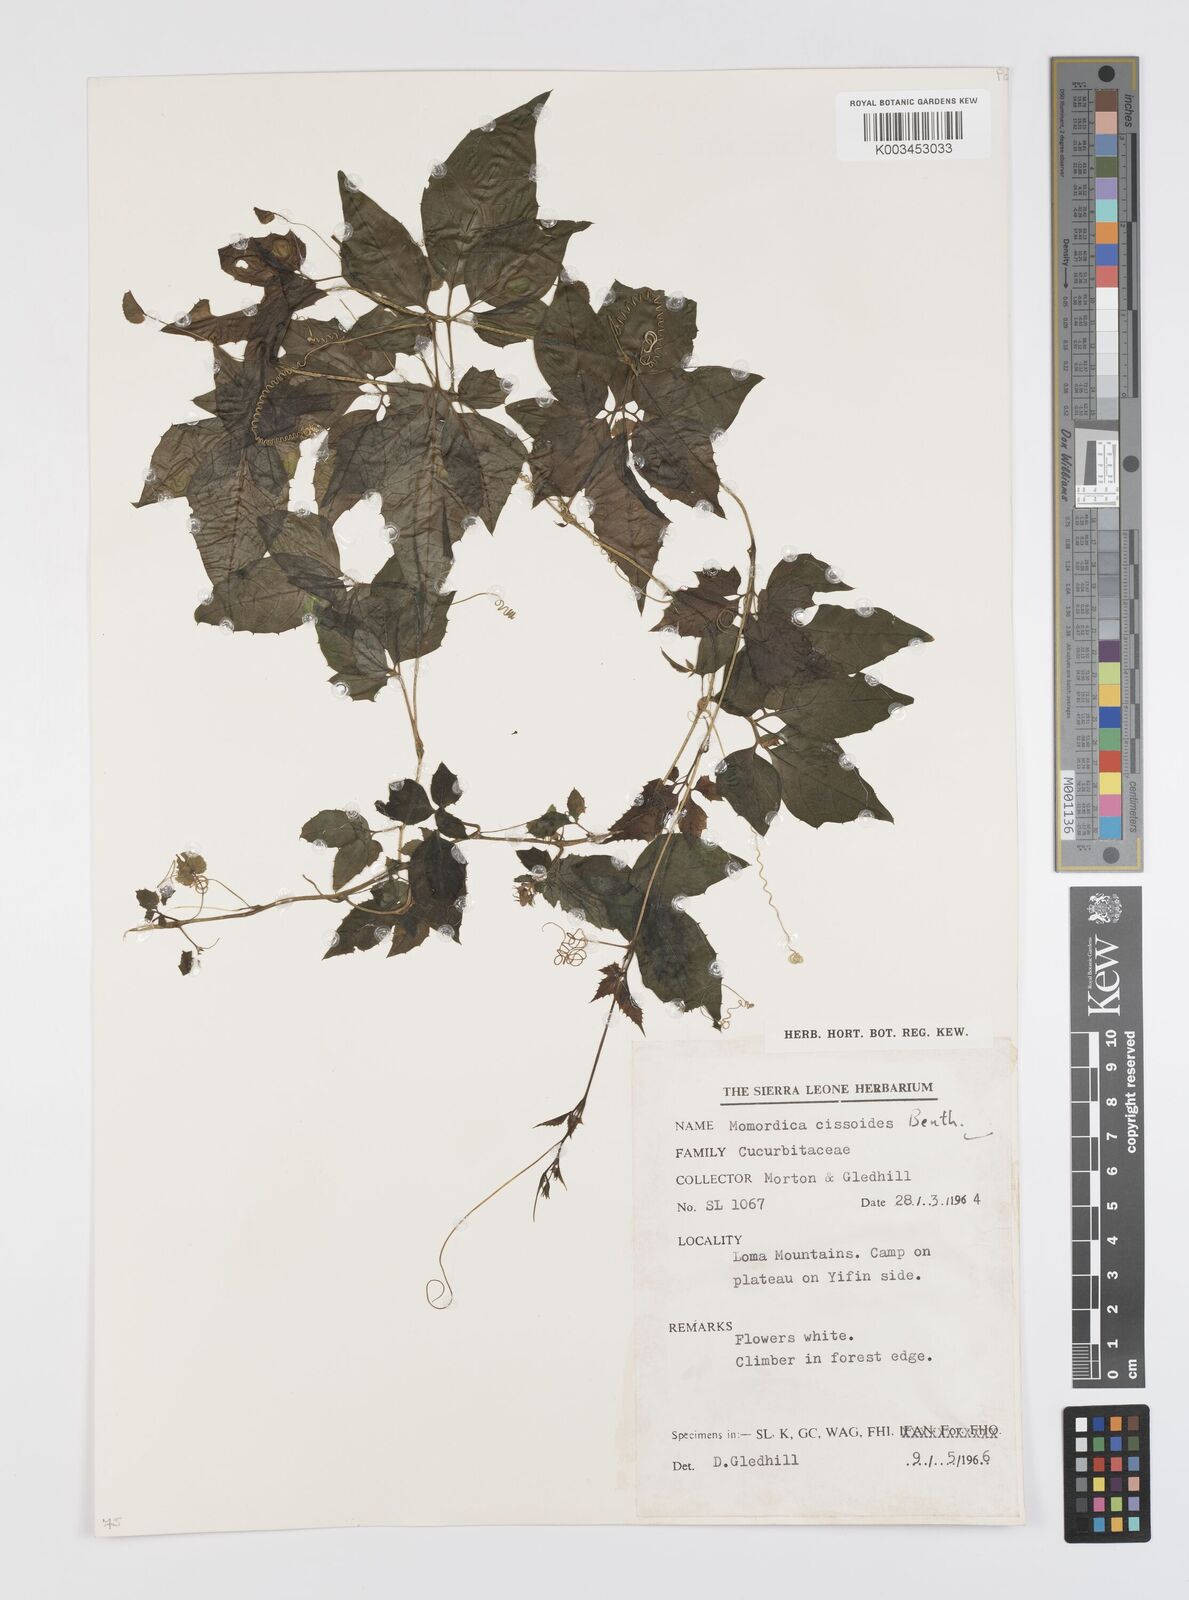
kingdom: Plantae
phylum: Tracheophyta
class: Magnoliopsida
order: Cucurbitales
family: Cucurbitaceae
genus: Momordica
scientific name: Momordica cissoides
